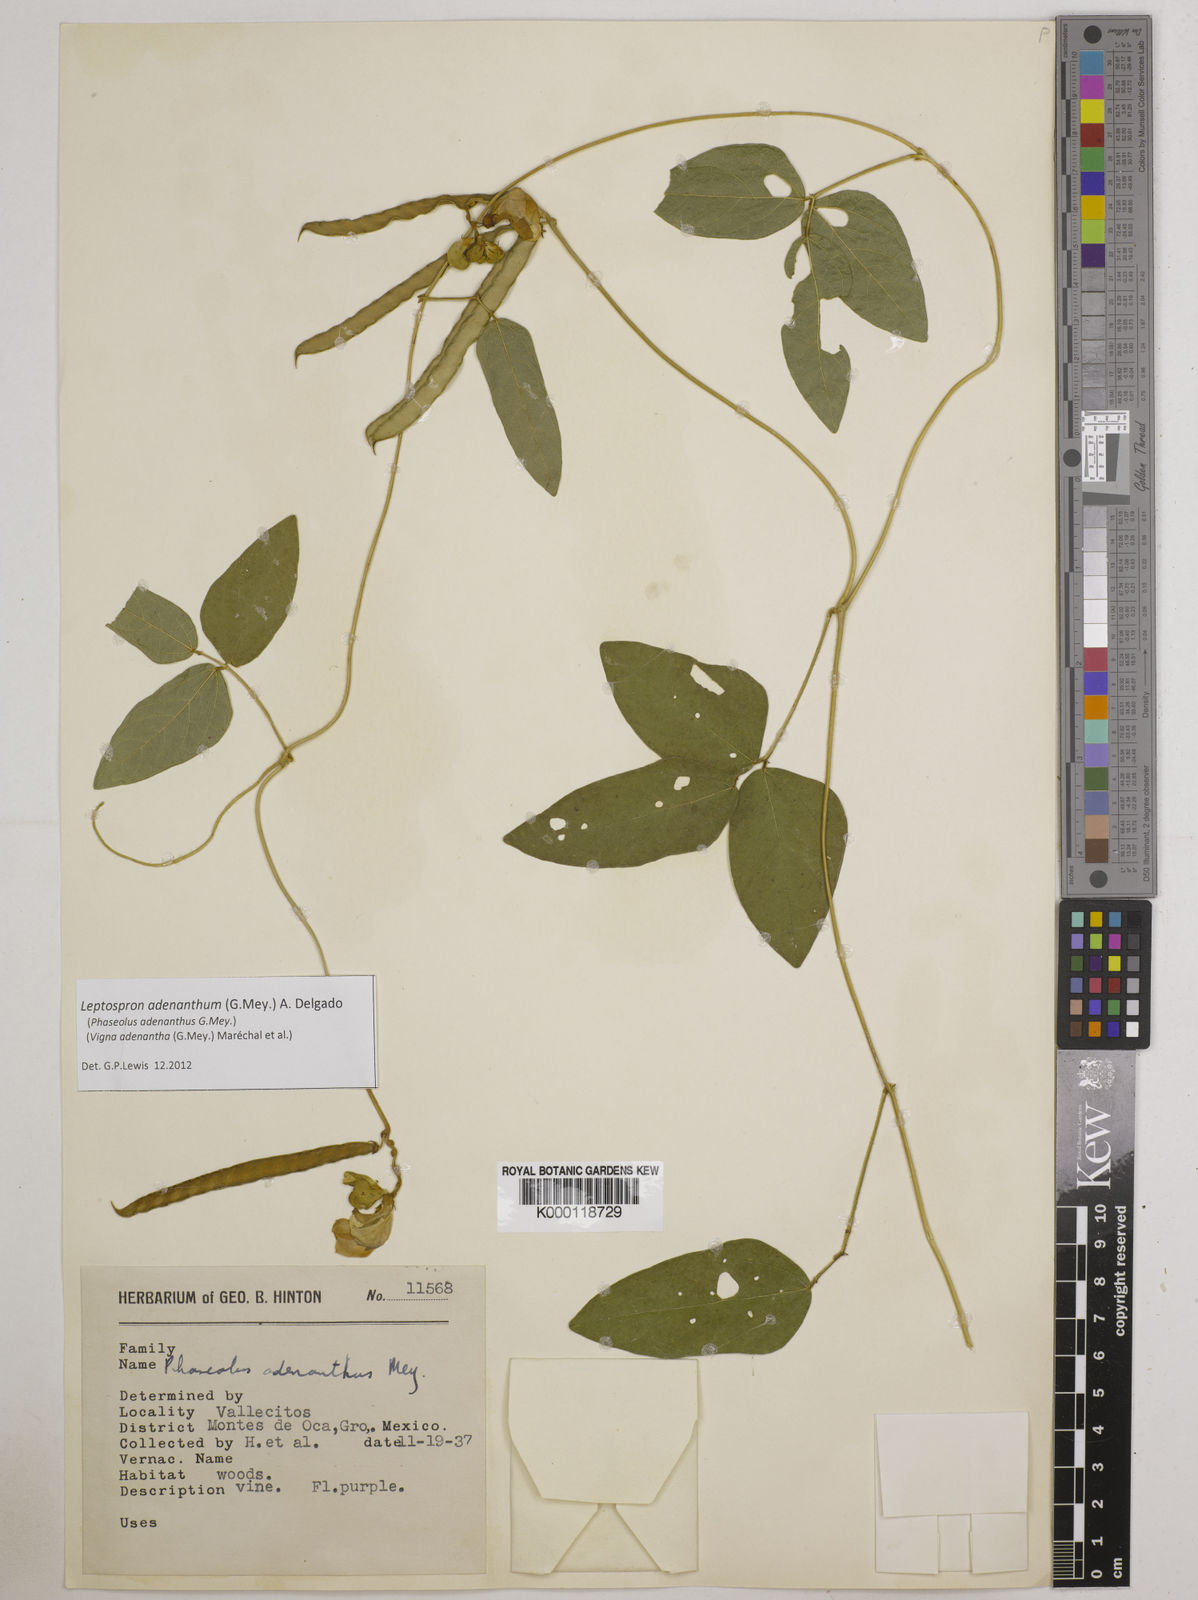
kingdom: Plantae
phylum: Tracheophyta
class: Magnoliopsida
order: Fabales
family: Fabaceae
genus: Leptospron
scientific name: Leptospron adenanthum
